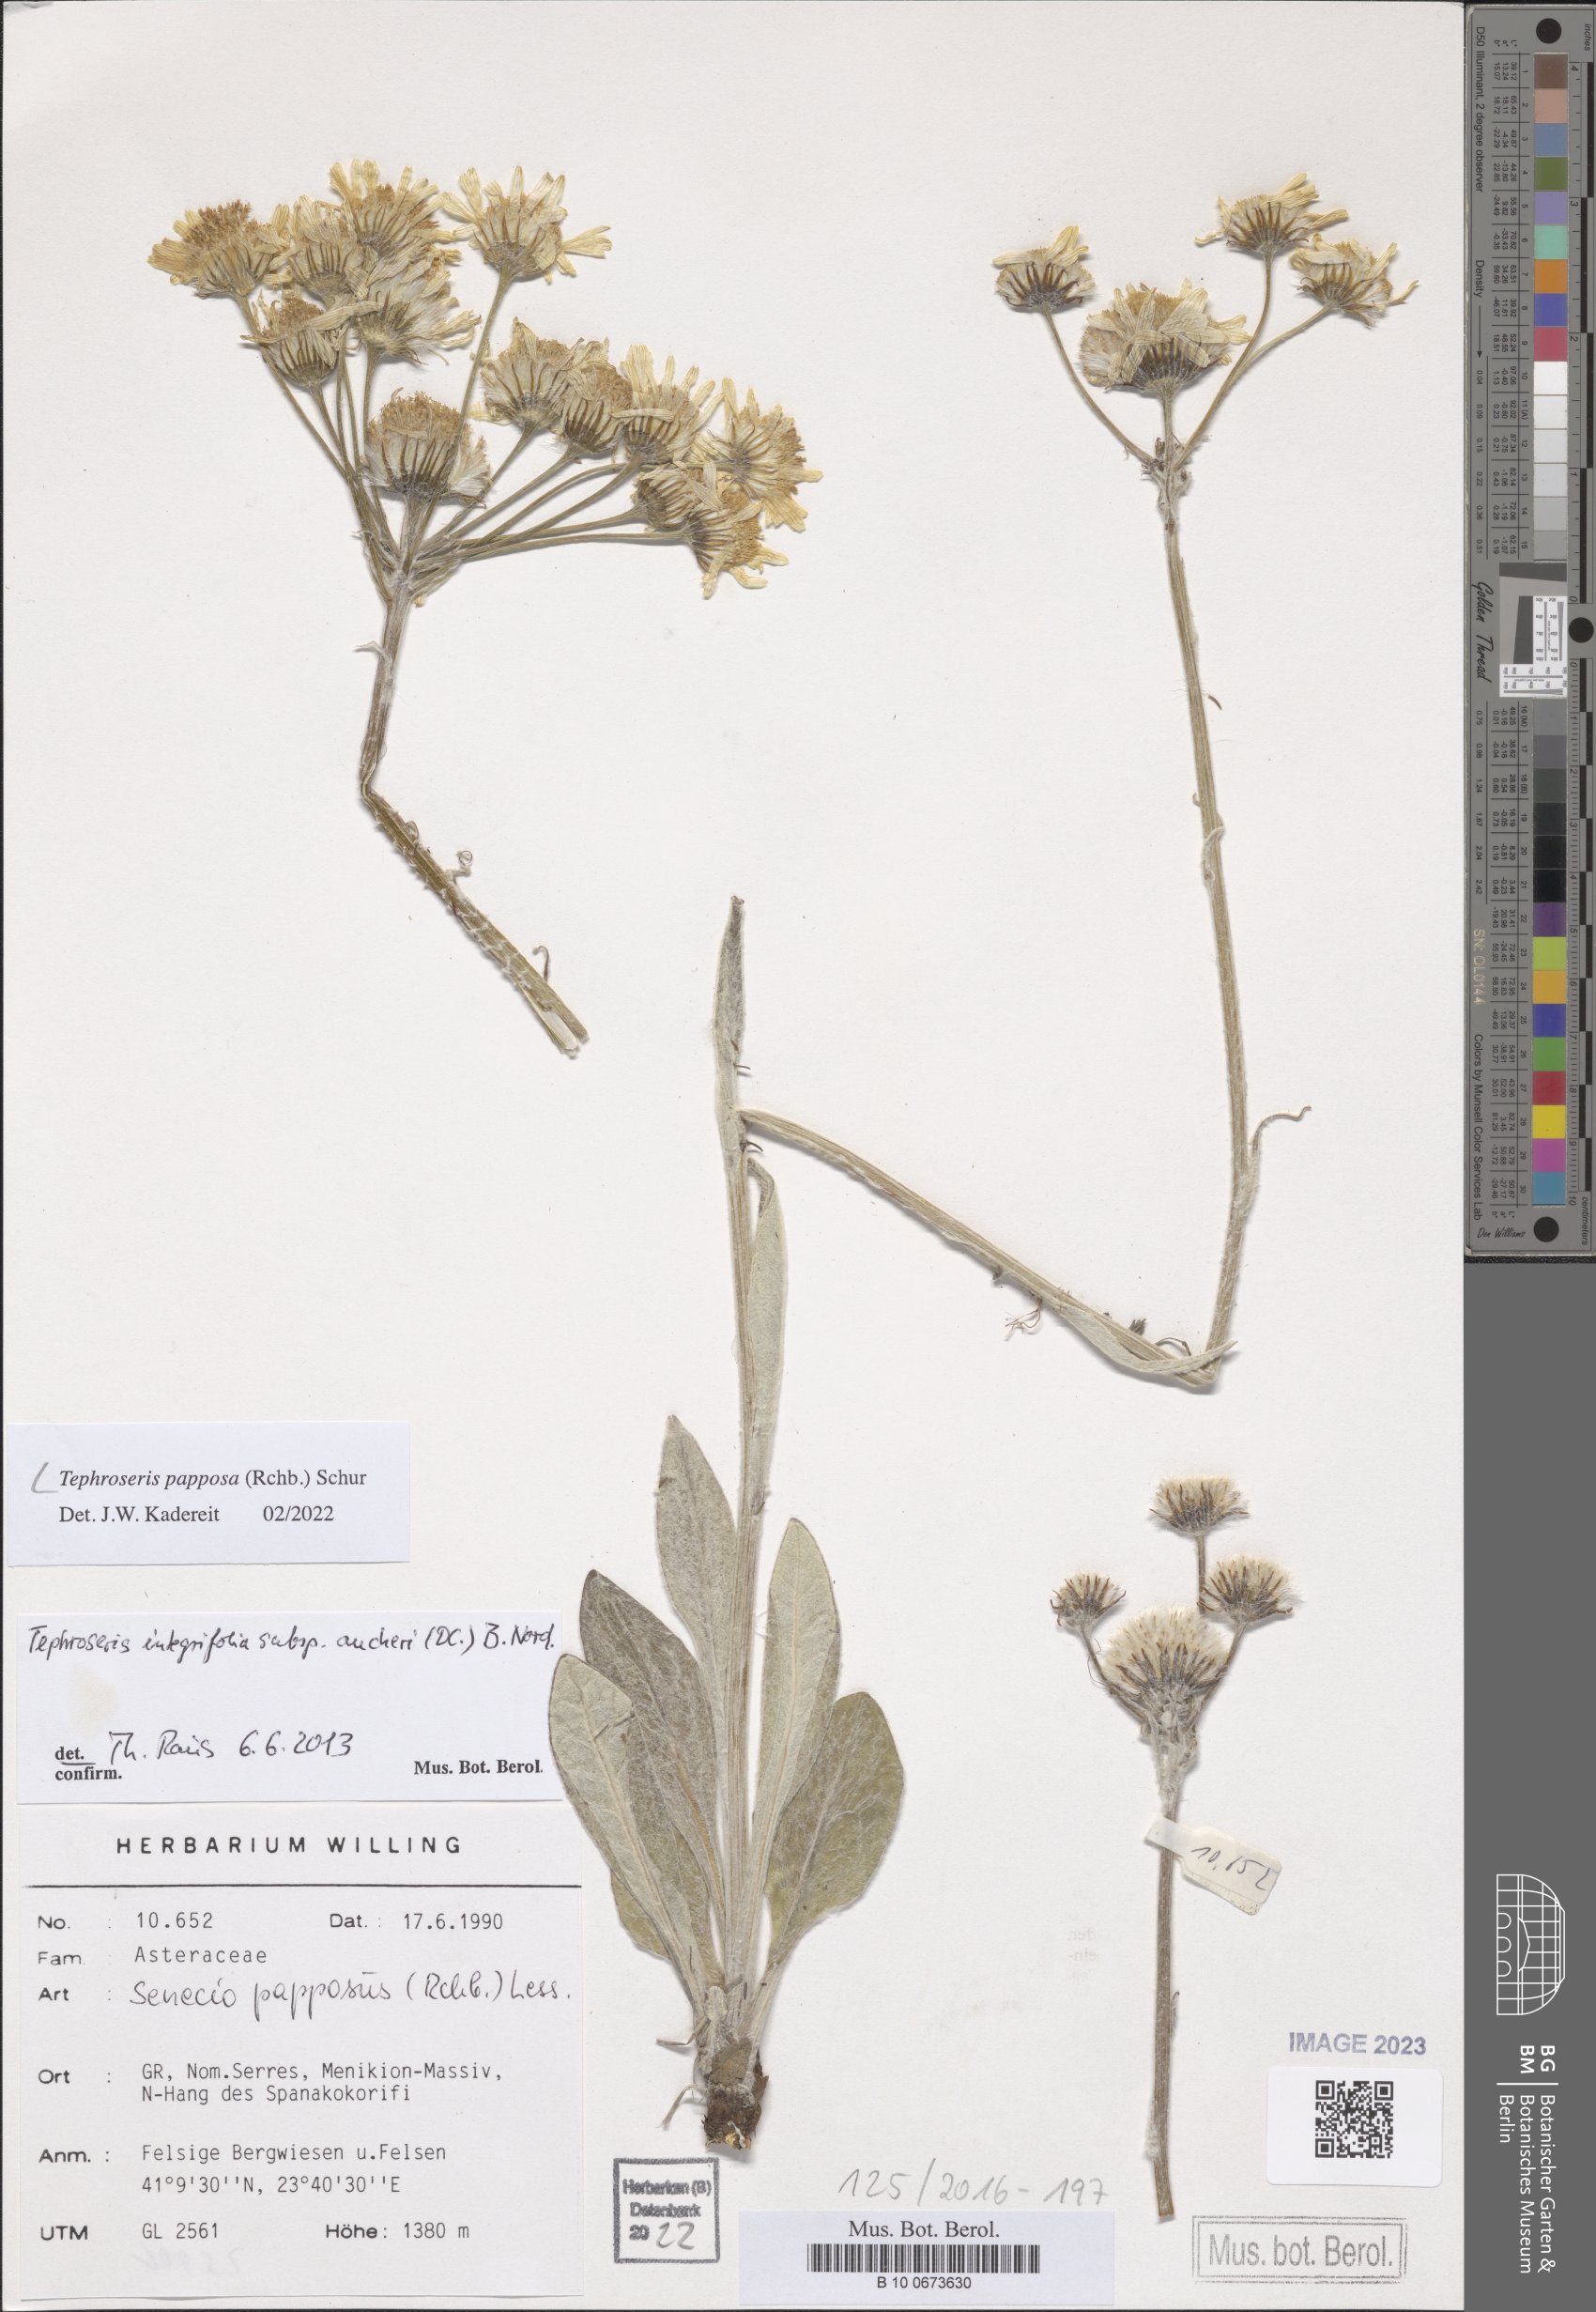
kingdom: Plantae
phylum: Tracheophyta
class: Magnoliopsida
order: Asterales
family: Asteraceae
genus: Tephroseris
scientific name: Tephroseris papposa
